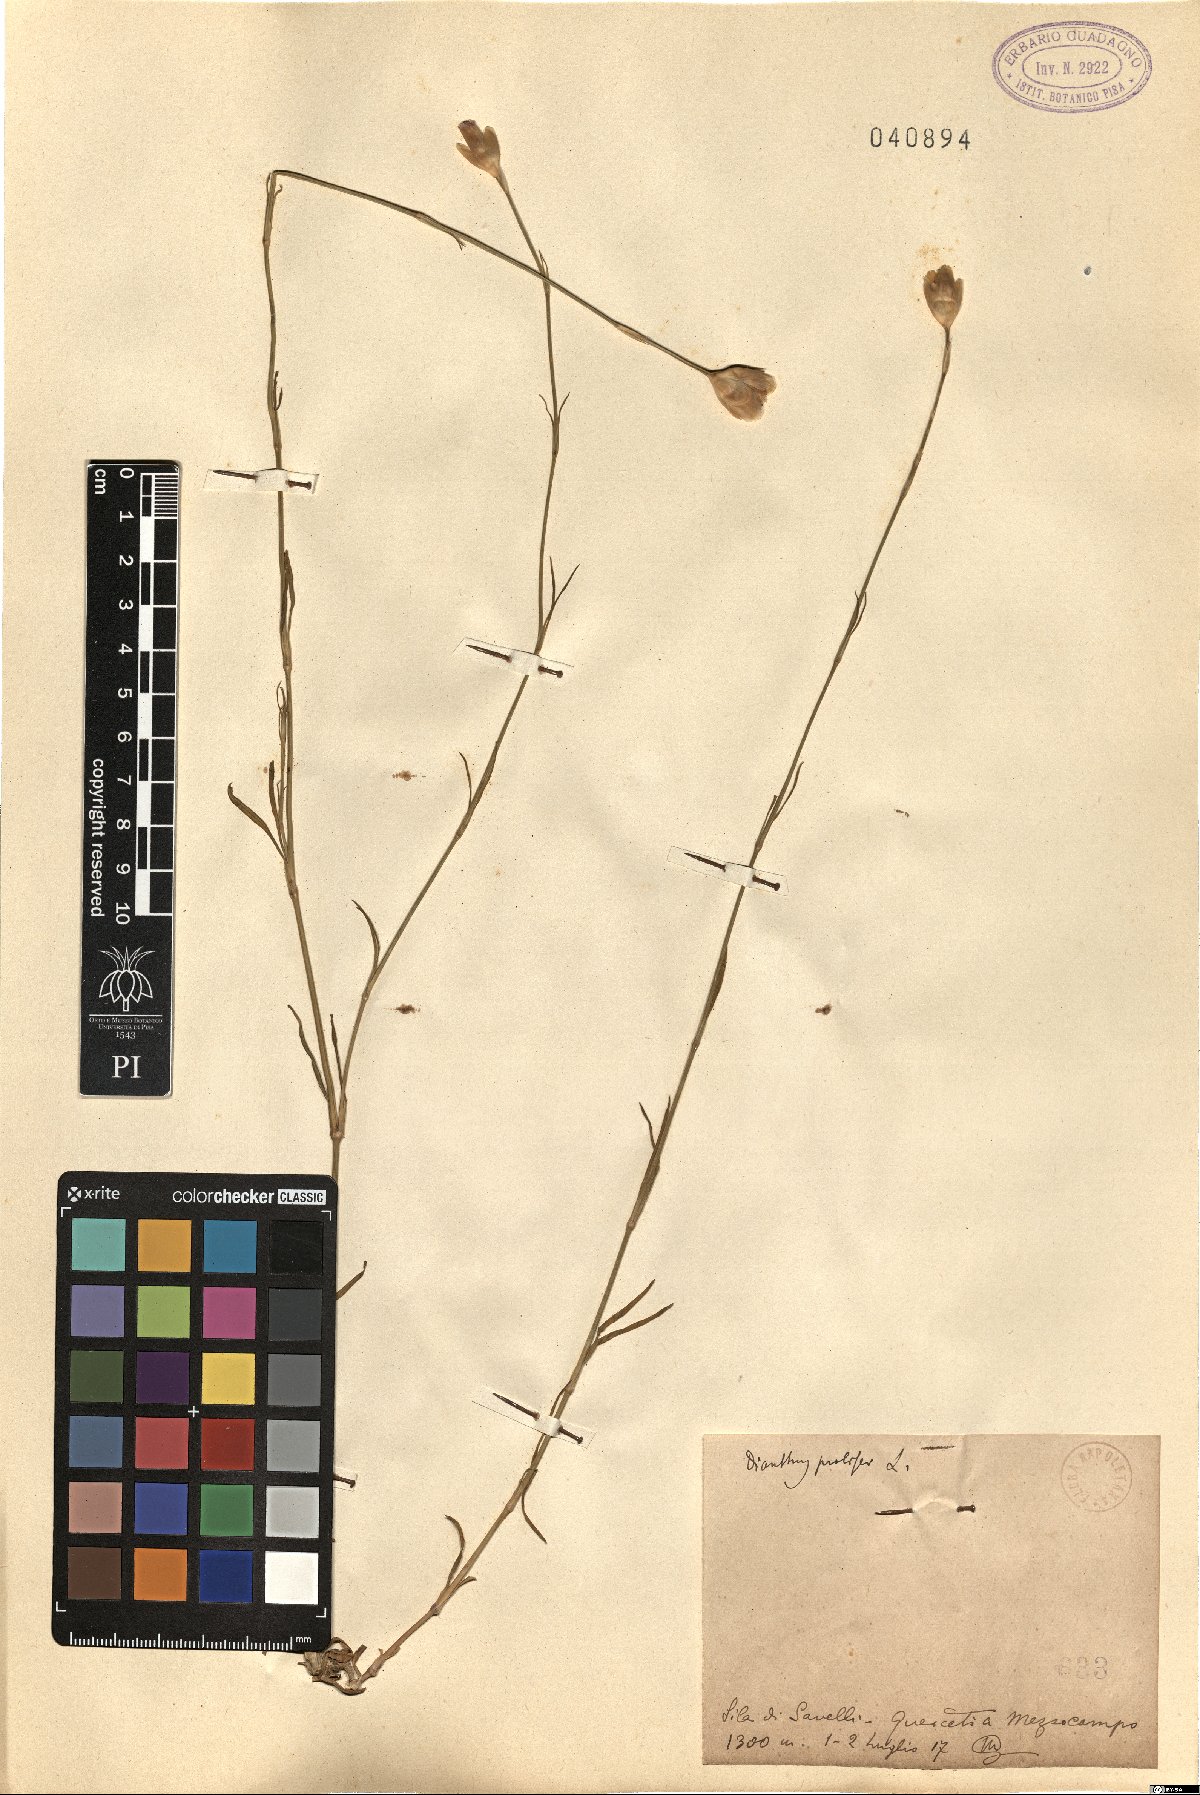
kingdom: Plantae
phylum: Tracheophyta
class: Magnoliopsida
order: Caryophyllales
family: Caryophyllaceae
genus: Petrorhagia
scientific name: Petrorhagia prolifera
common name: Proliferous pink
